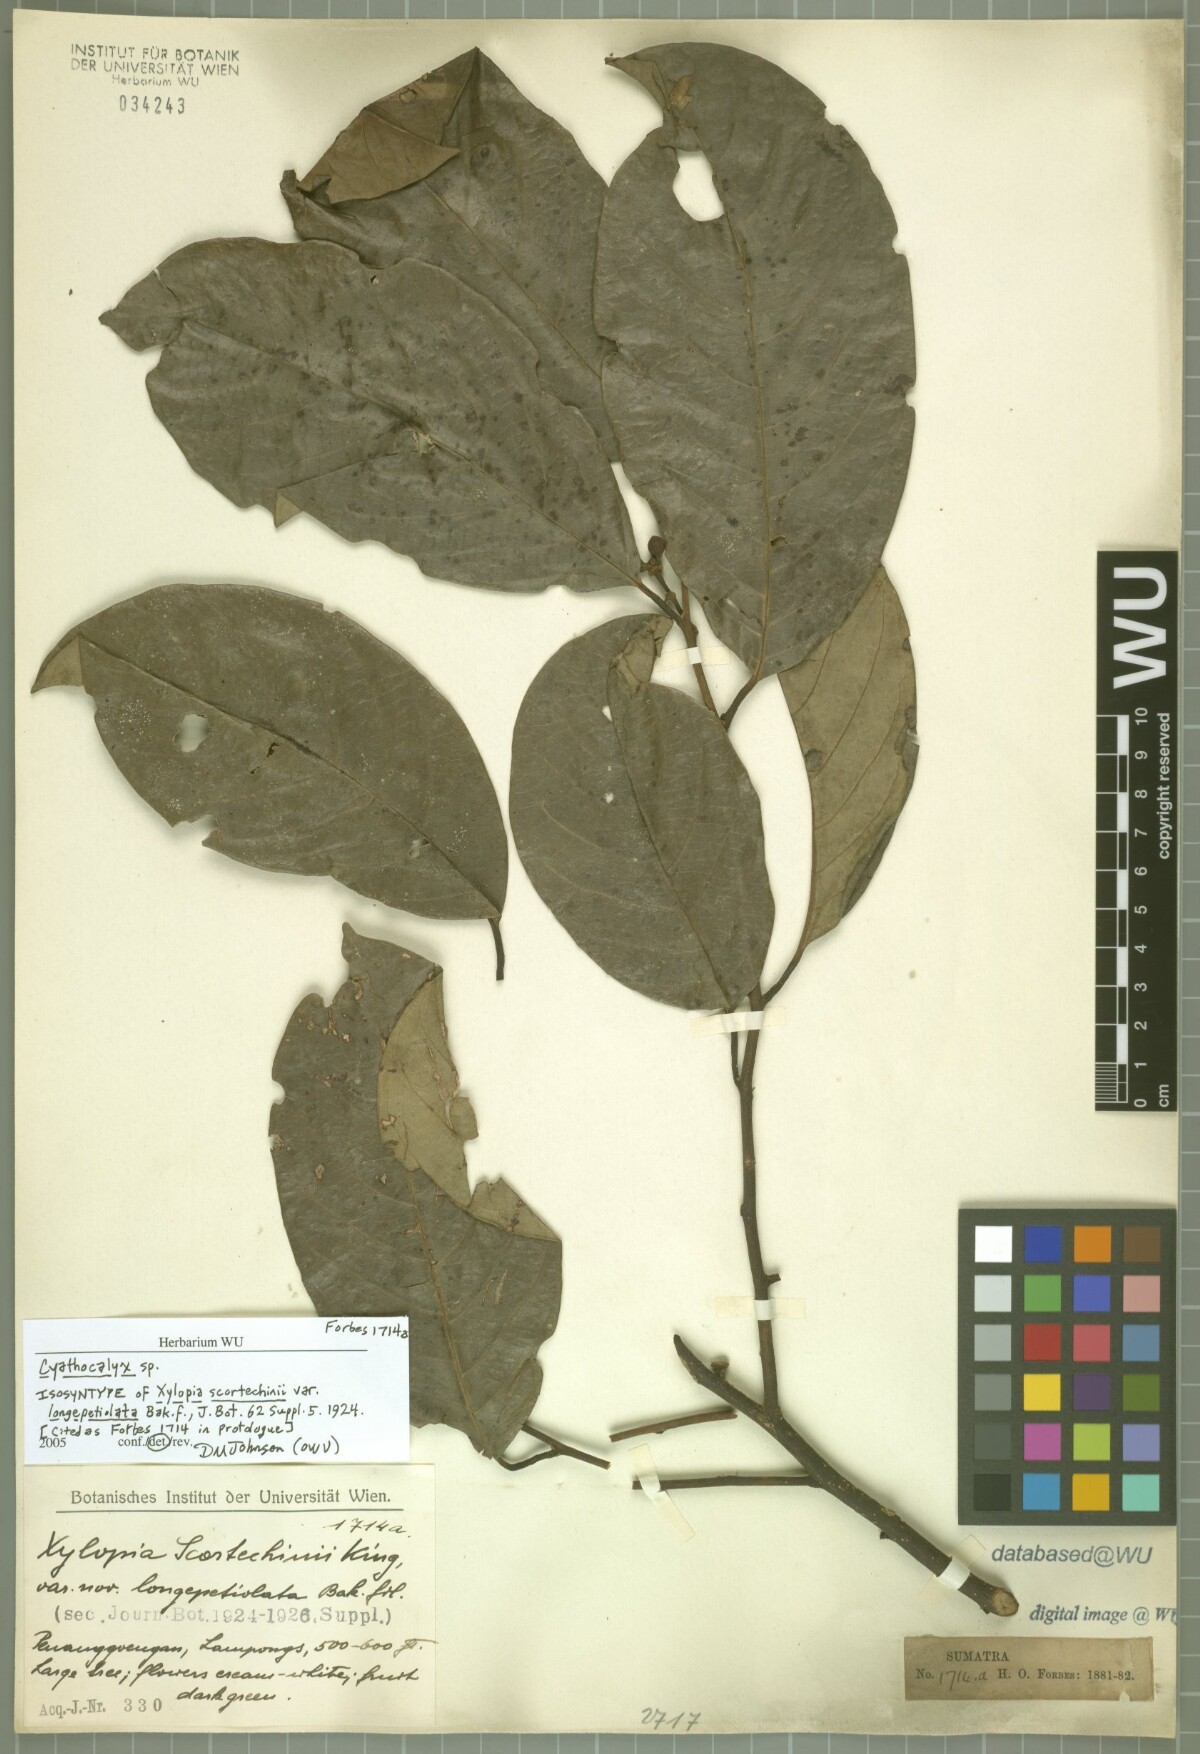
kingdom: Plantae
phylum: Tracheophyta
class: Magnoliopsida
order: Magnoliales
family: Annonaceae
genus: Drepananthus
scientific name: Drepananthus hexagynus
